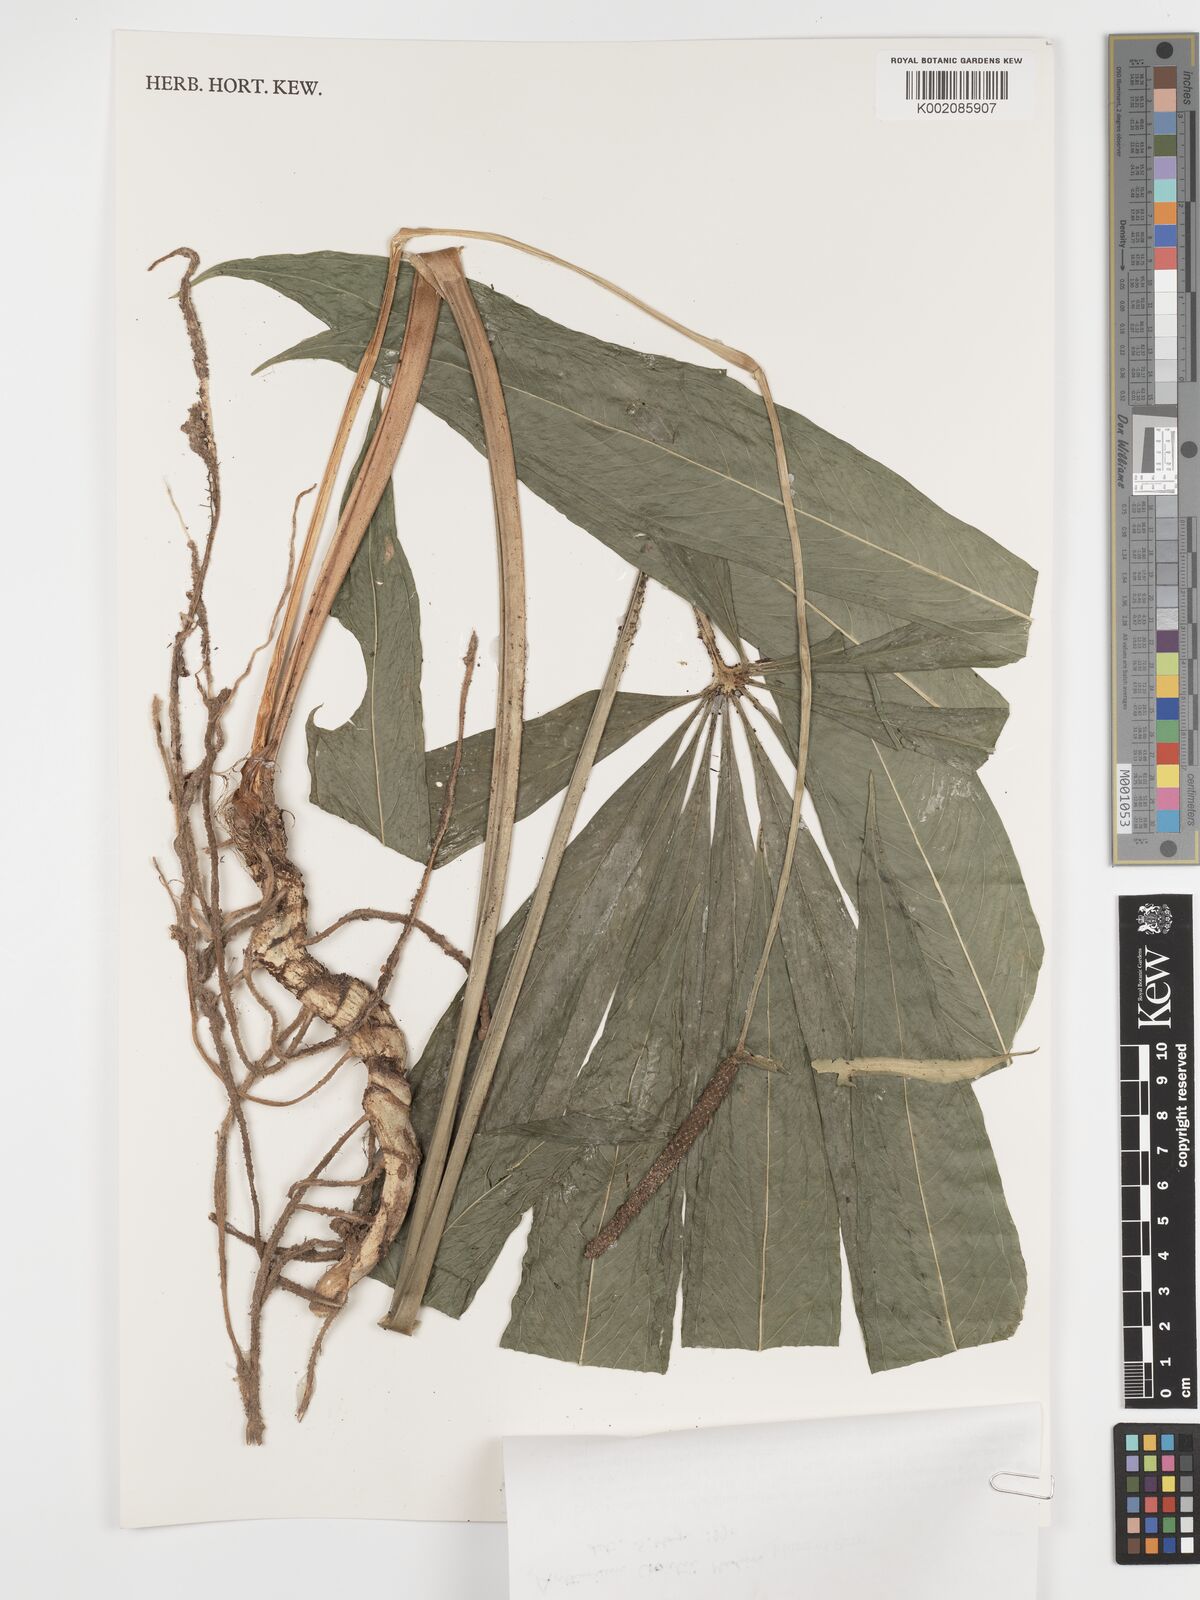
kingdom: Plantae
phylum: Tracheophyta
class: Liliopsida
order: Alismatales
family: Araceae
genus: Anthurium
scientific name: Anthurium croatii
